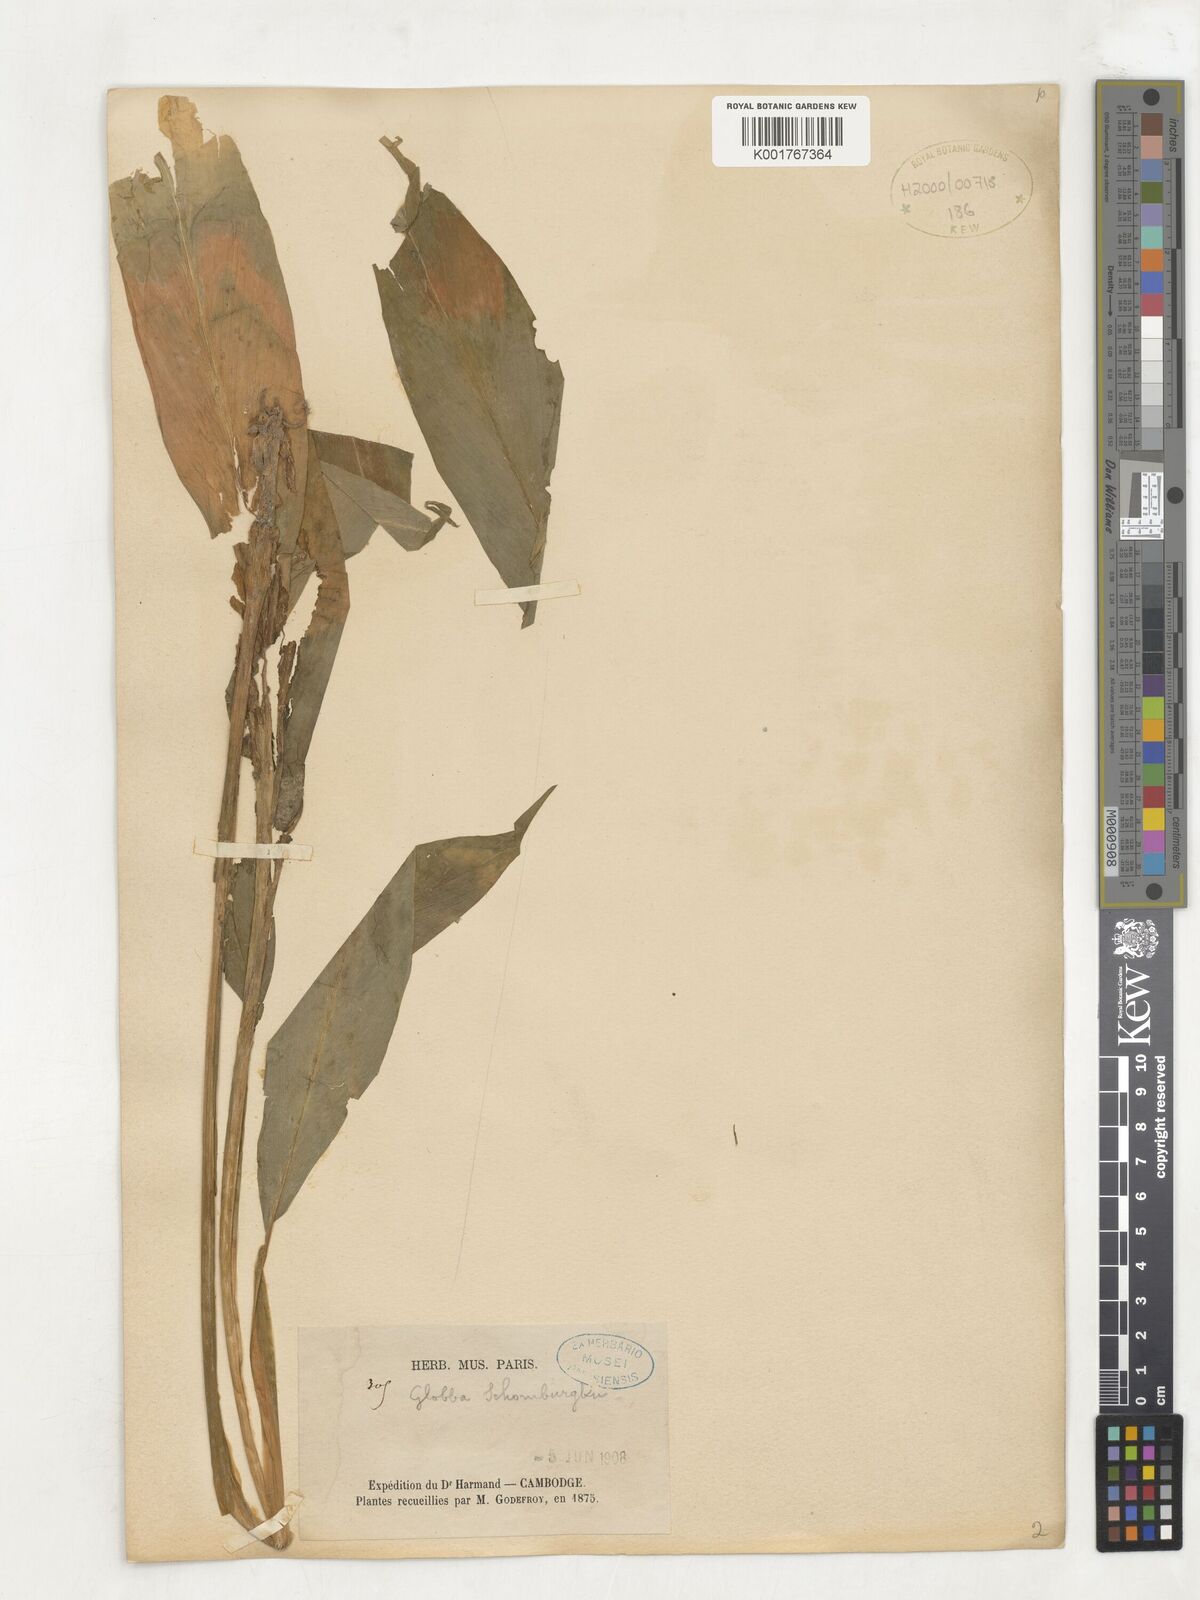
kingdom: Plantae
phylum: Tracheophyta
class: Liliopsida
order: Zingiberales
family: Zingiberaceae
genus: Globba
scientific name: Globba schomburgkii
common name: Dancing girl ginger
